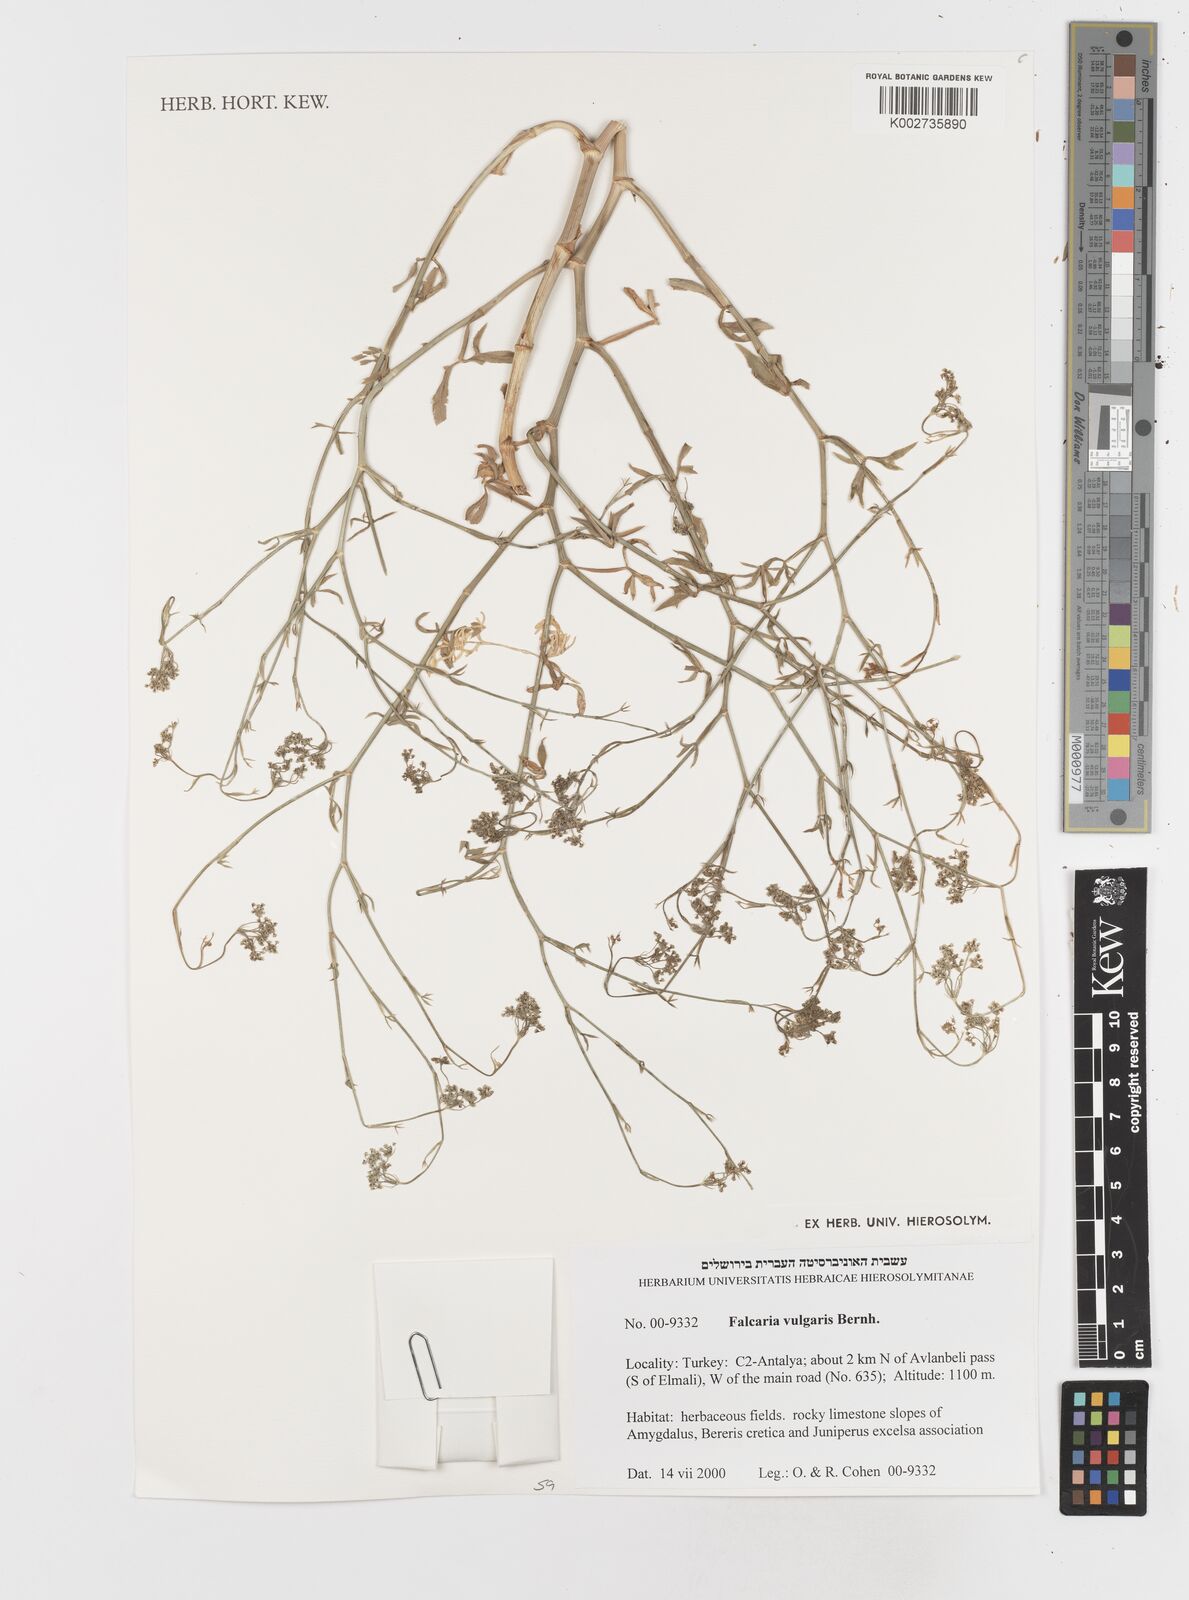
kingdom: Plantae
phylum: Tracheophyta
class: Magnoliopsida
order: Apiales
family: Apiaceae
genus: Falcaria
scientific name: Falcaria vulgaris
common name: Longleaf
